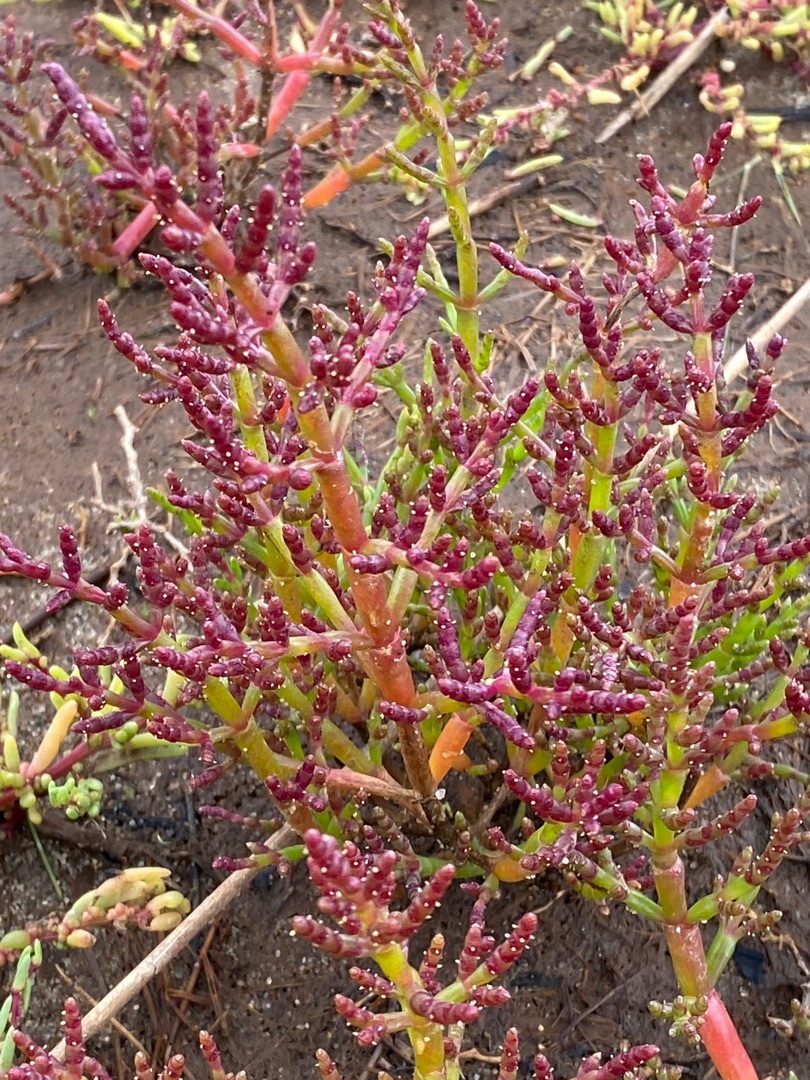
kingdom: Plantae
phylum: Tracheophyta
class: Magnoliopsida
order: Caryophyllales
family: Amaranthaceae
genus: Salicornia
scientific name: Salicornia europaea
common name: Almindelig salturt
